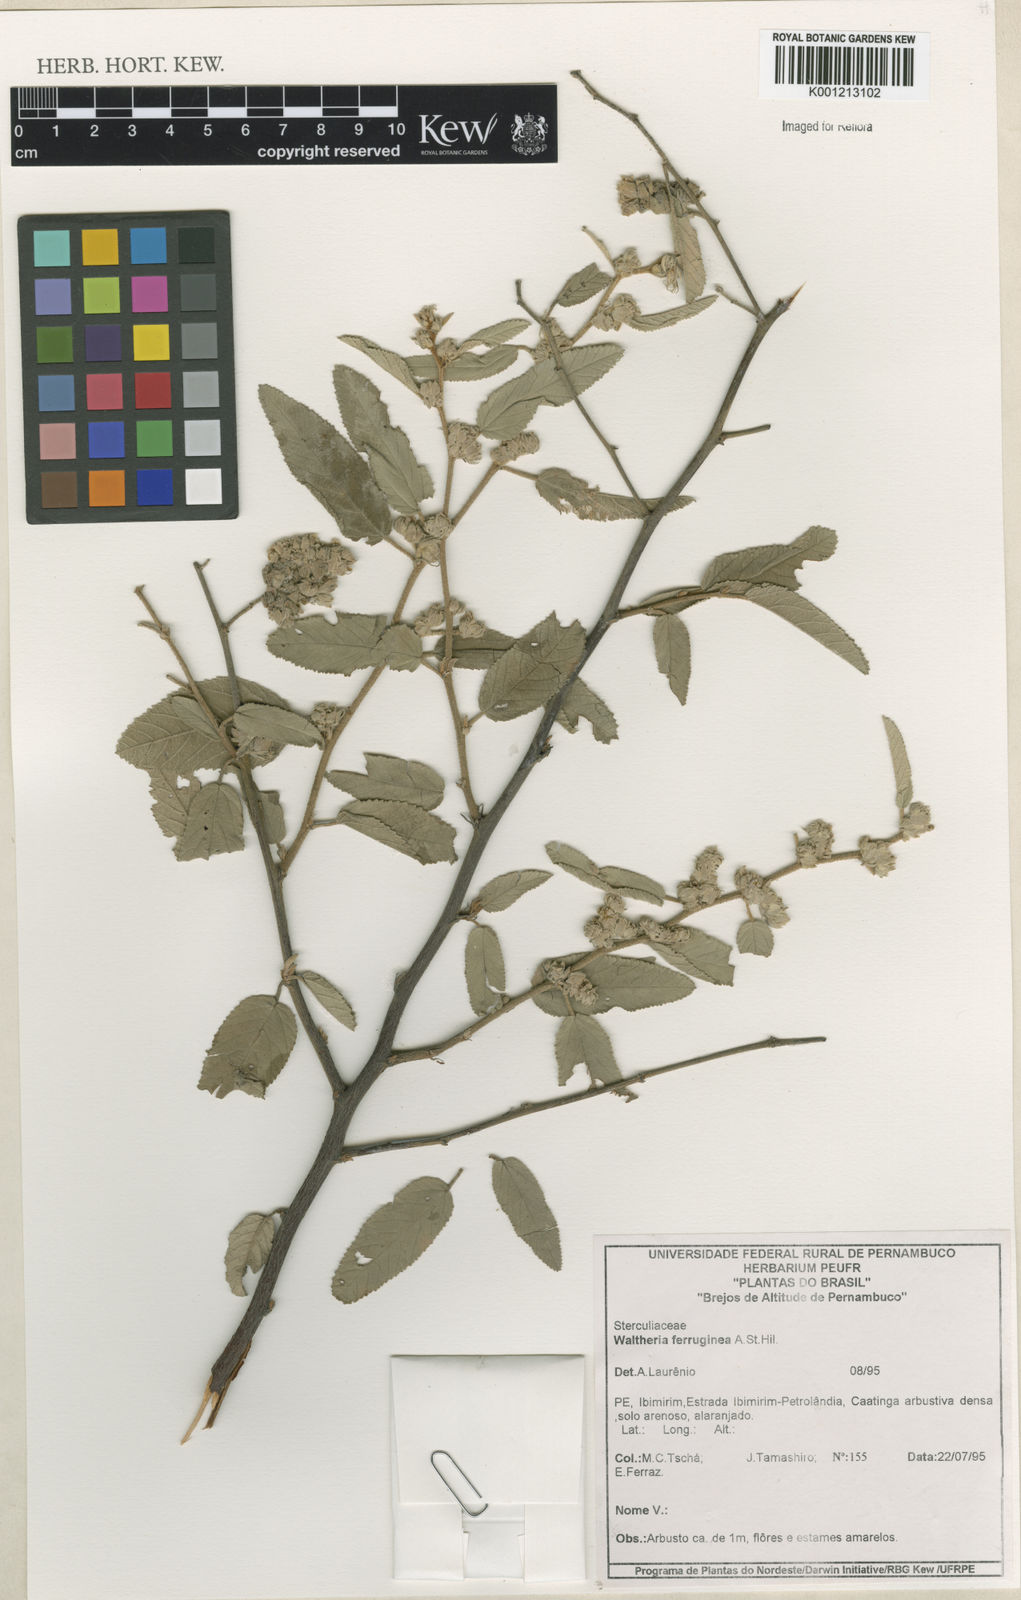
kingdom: Plantae
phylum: Tracheophyta
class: Magnoliopsida
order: Malvales
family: Malvaceae
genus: Waltheria
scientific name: Waltheria ferruginea
